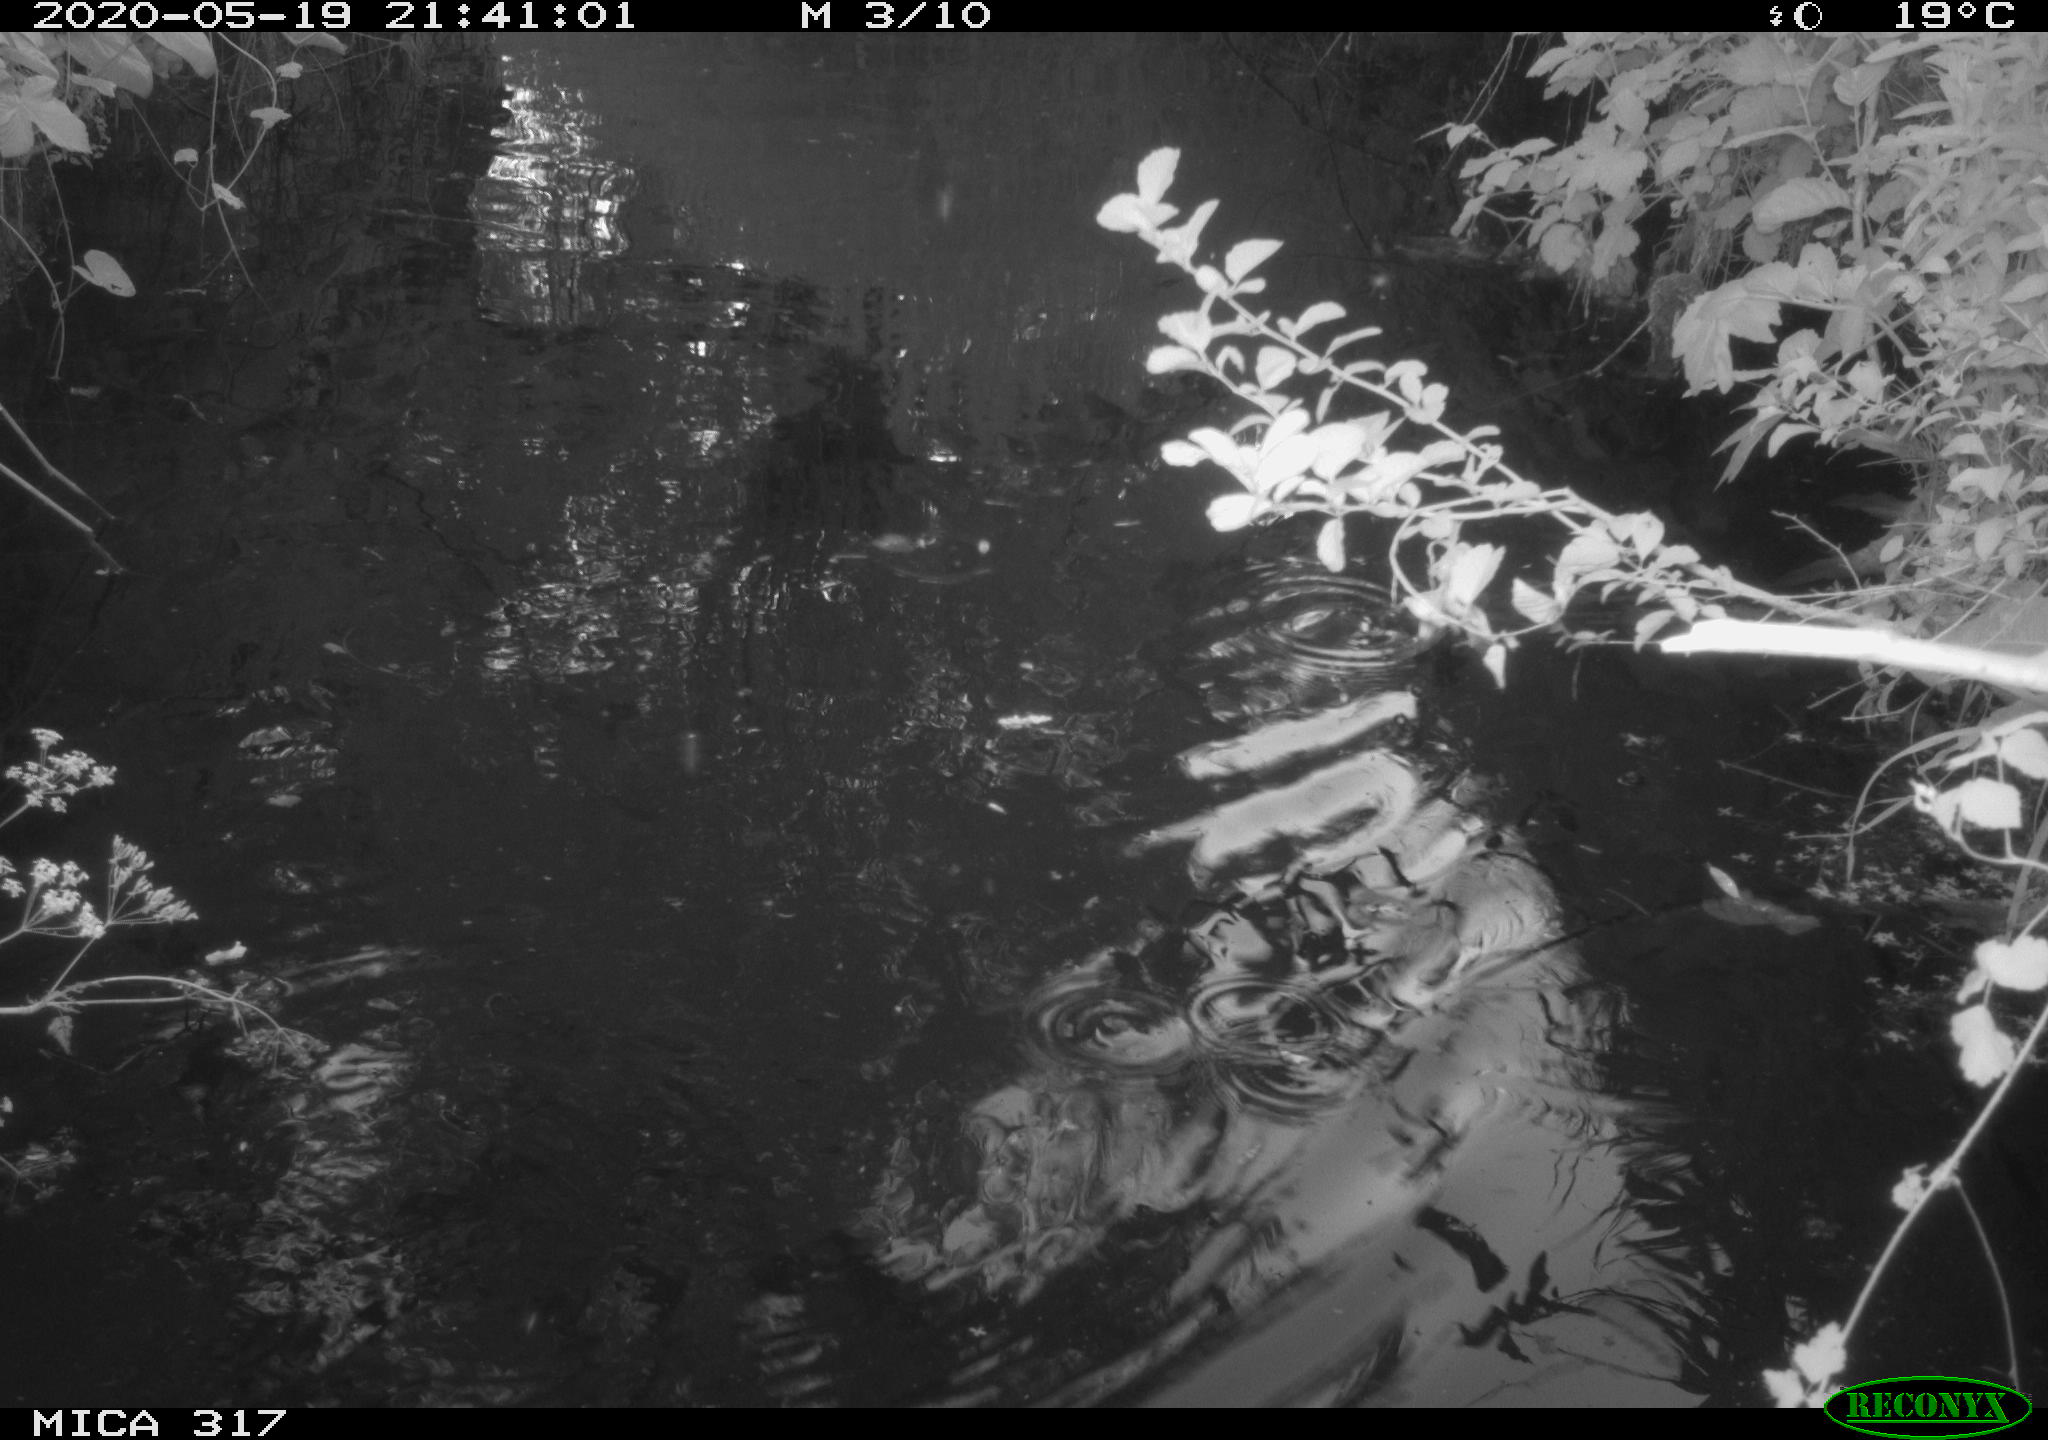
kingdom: Animalia
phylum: Chordata
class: Aves
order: Anseriformes
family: Anatidae
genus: Anas
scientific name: Anas platyrhynchos
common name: Mallard
